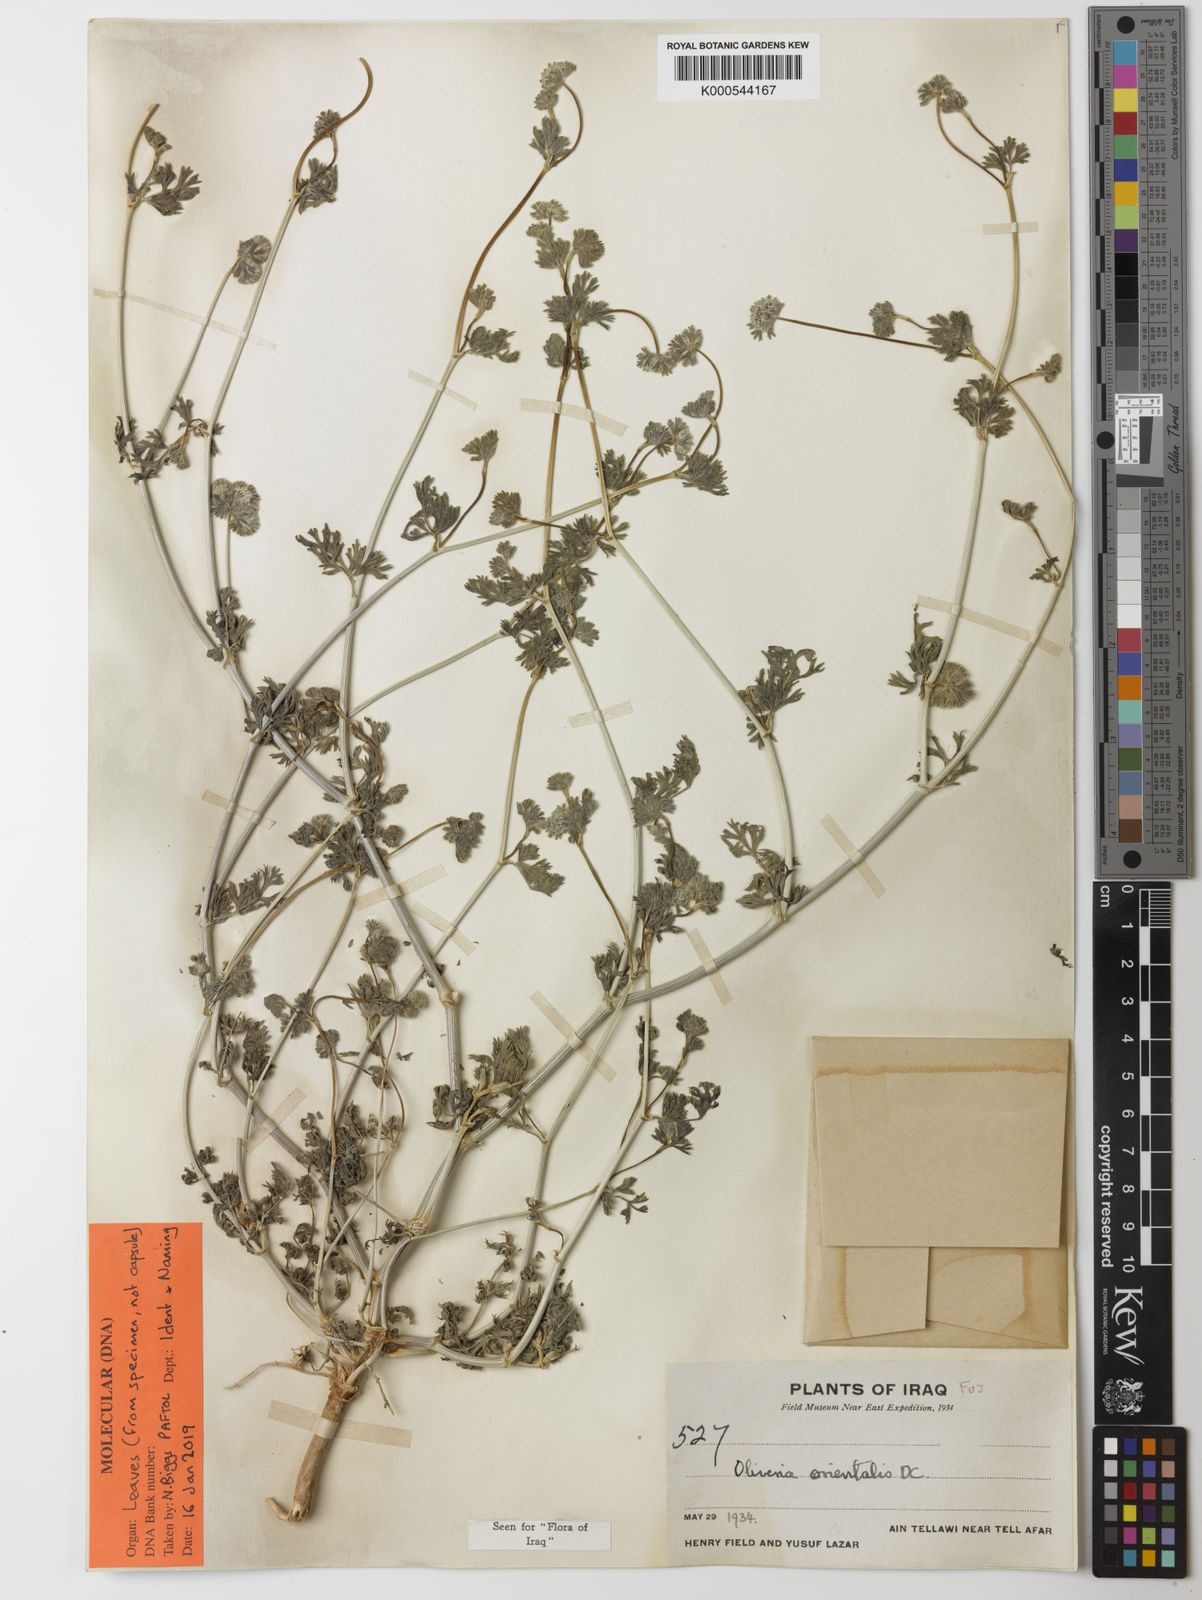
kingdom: Plantae
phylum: Tracheophyta
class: Magnoliopsida
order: Apiales
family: Apiaceae
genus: Oliveria
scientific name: Oliveria decumbens
